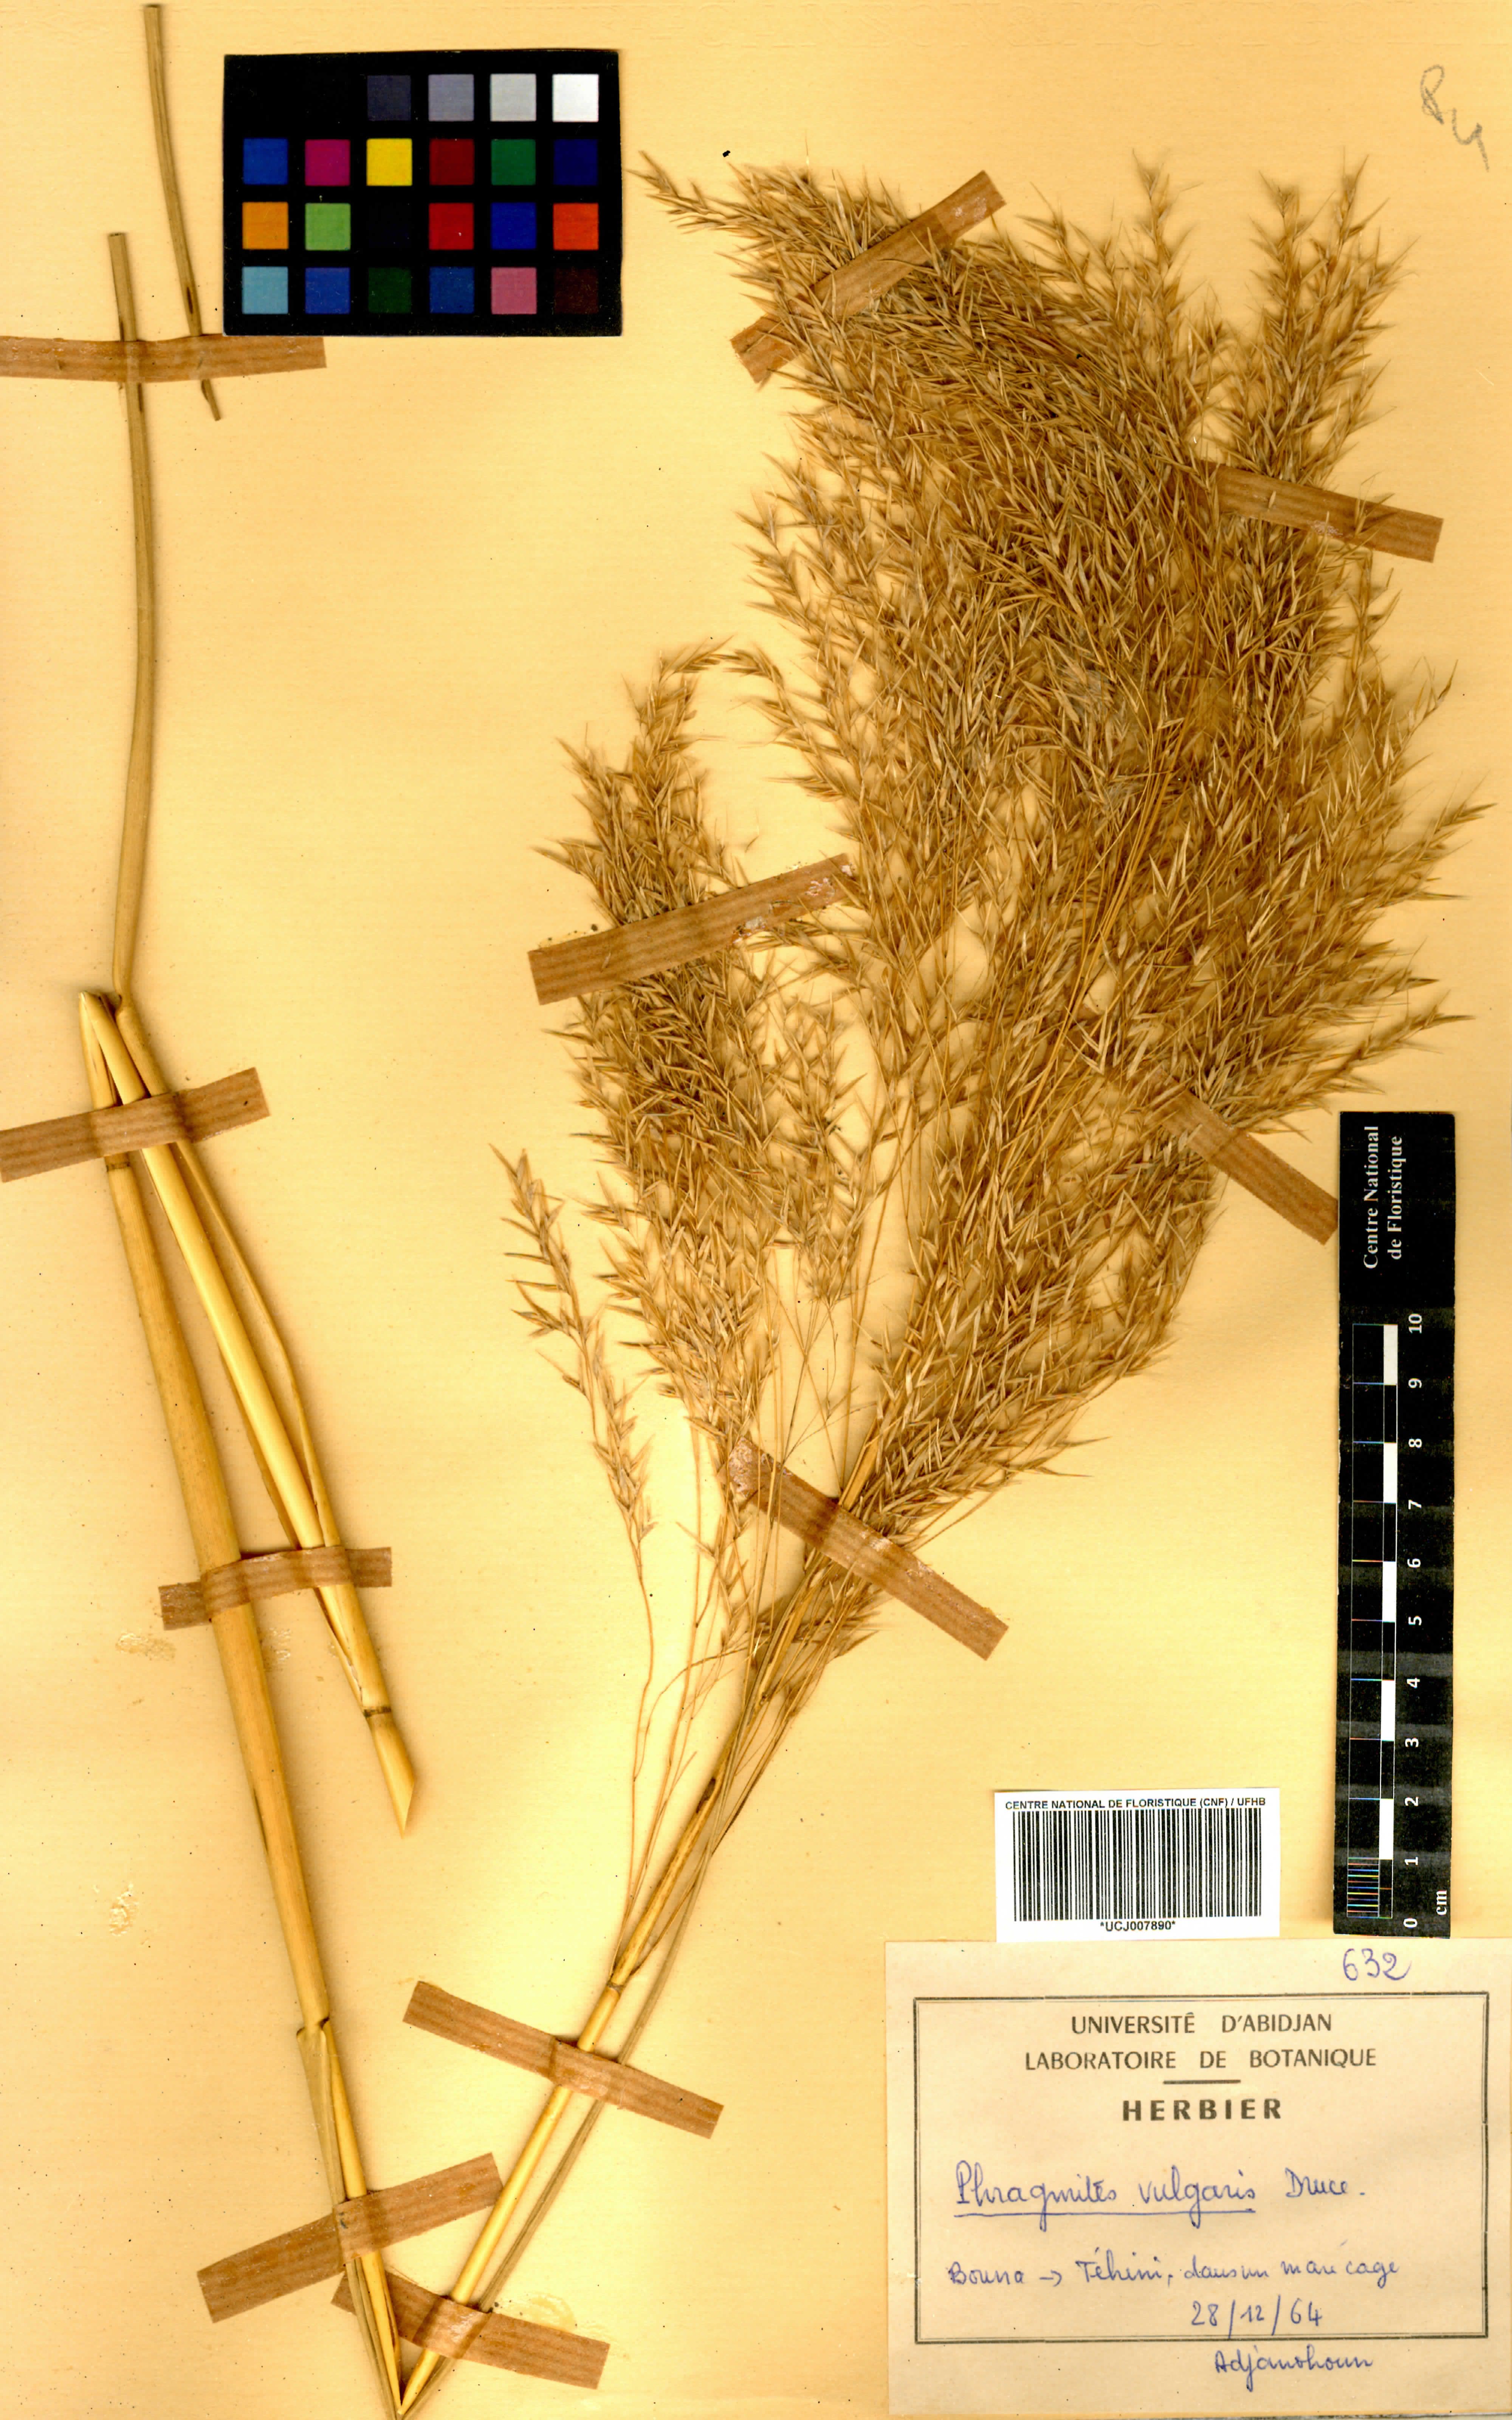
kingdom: Plantae
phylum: Tracheophyta
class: Liliopsida
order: Poales
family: Poaceae
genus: Phragmites
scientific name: Phragmites vulgaris
